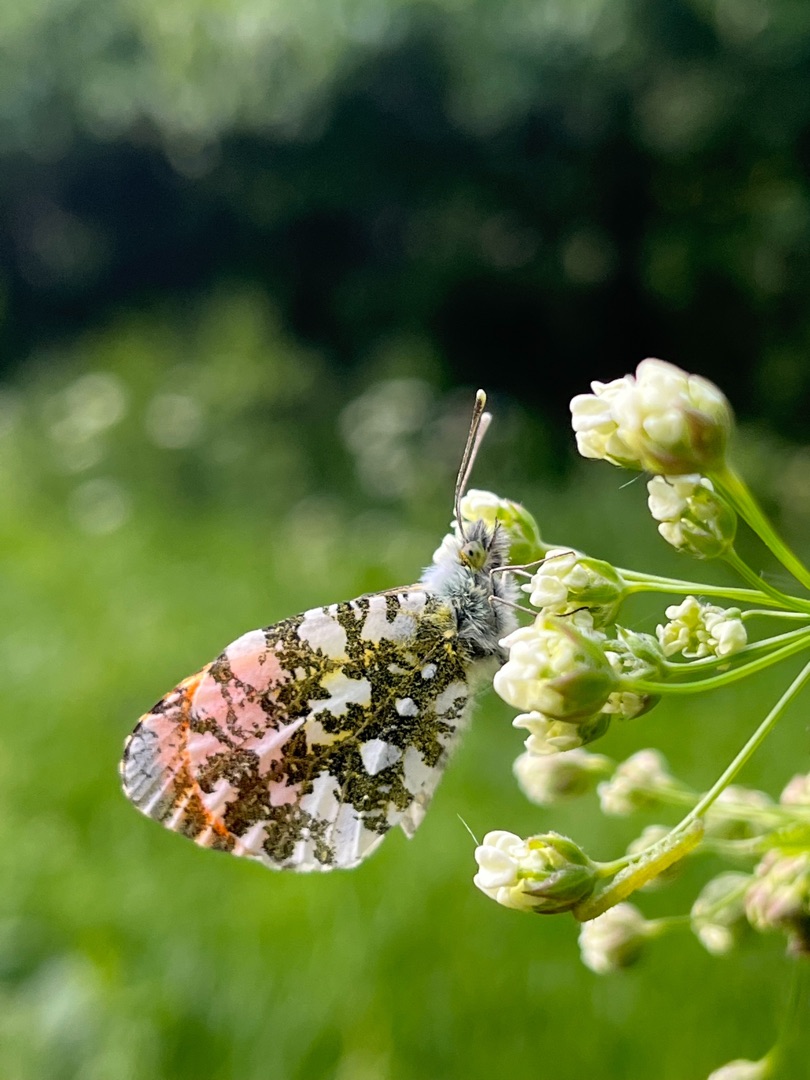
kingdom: Animalia
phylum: Arthropoda
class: Insecta
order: Lepidoptera
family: Pieridae
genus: Anthocharis
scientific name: Anthocharis cardamines
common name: Aurora
